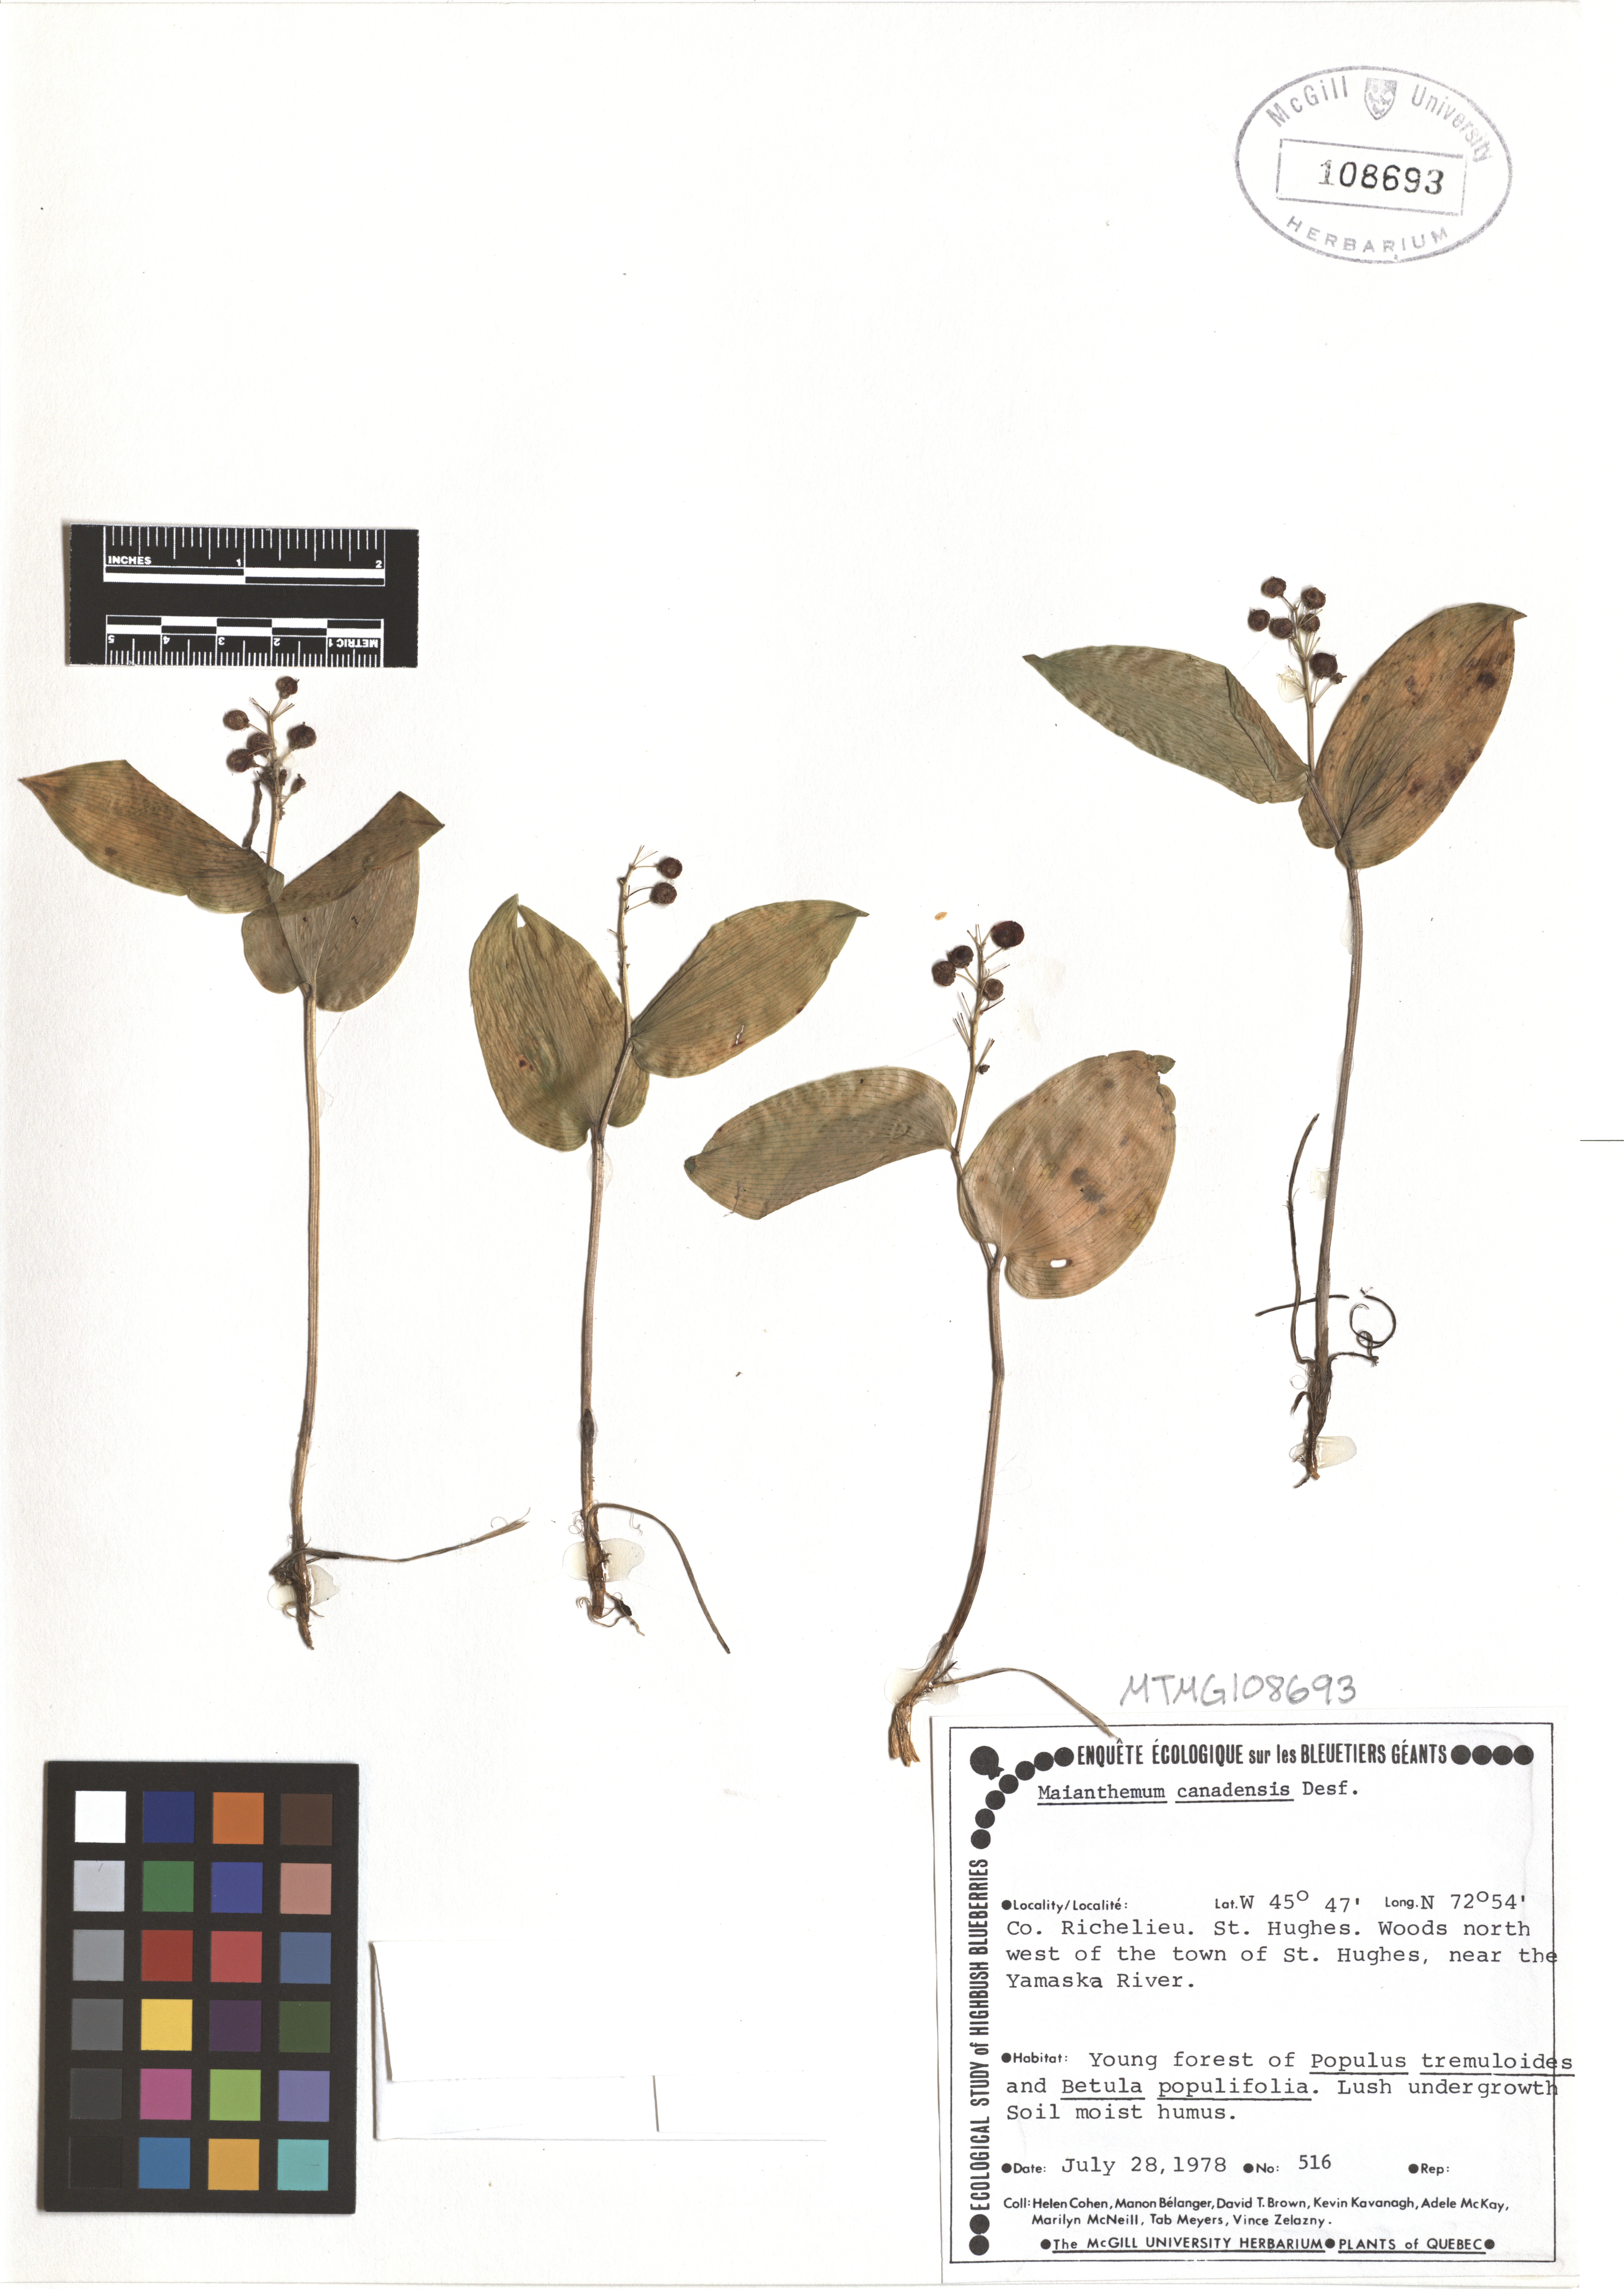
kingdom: Plantae
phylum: Tracheophyta
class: Liliopsida
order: Asparagales
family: Asparagaceae
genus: Maianthemum
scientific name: Maianthemum canadense
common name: False lily-of-the-valley
